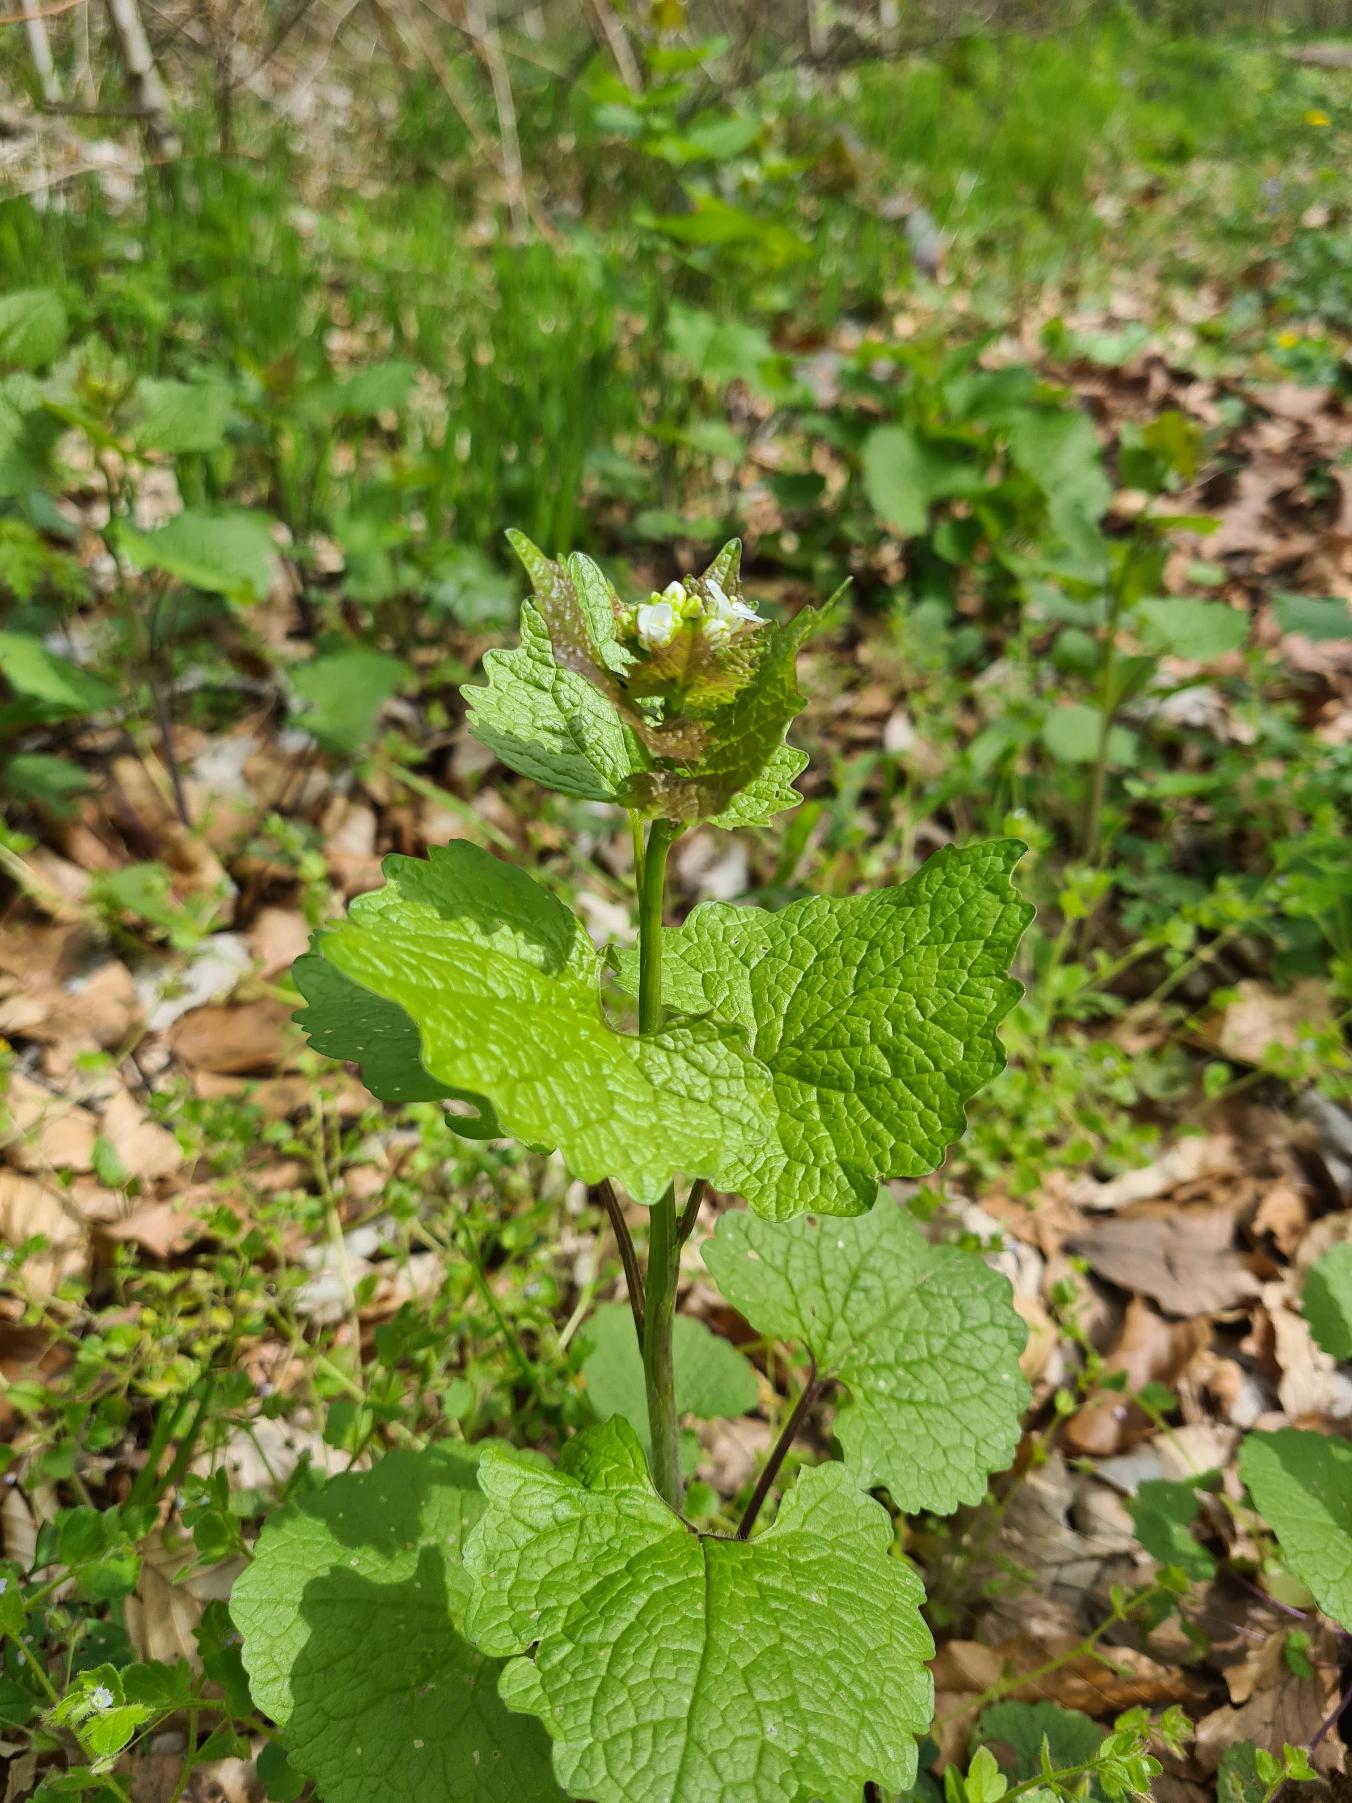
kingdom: Plantae
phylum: Tracheophyta
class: Magnoliopsida
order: Brassicales
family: Brassicaceae
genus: Alliaria
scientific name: Alliaria petiolata
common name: Løgkarse
